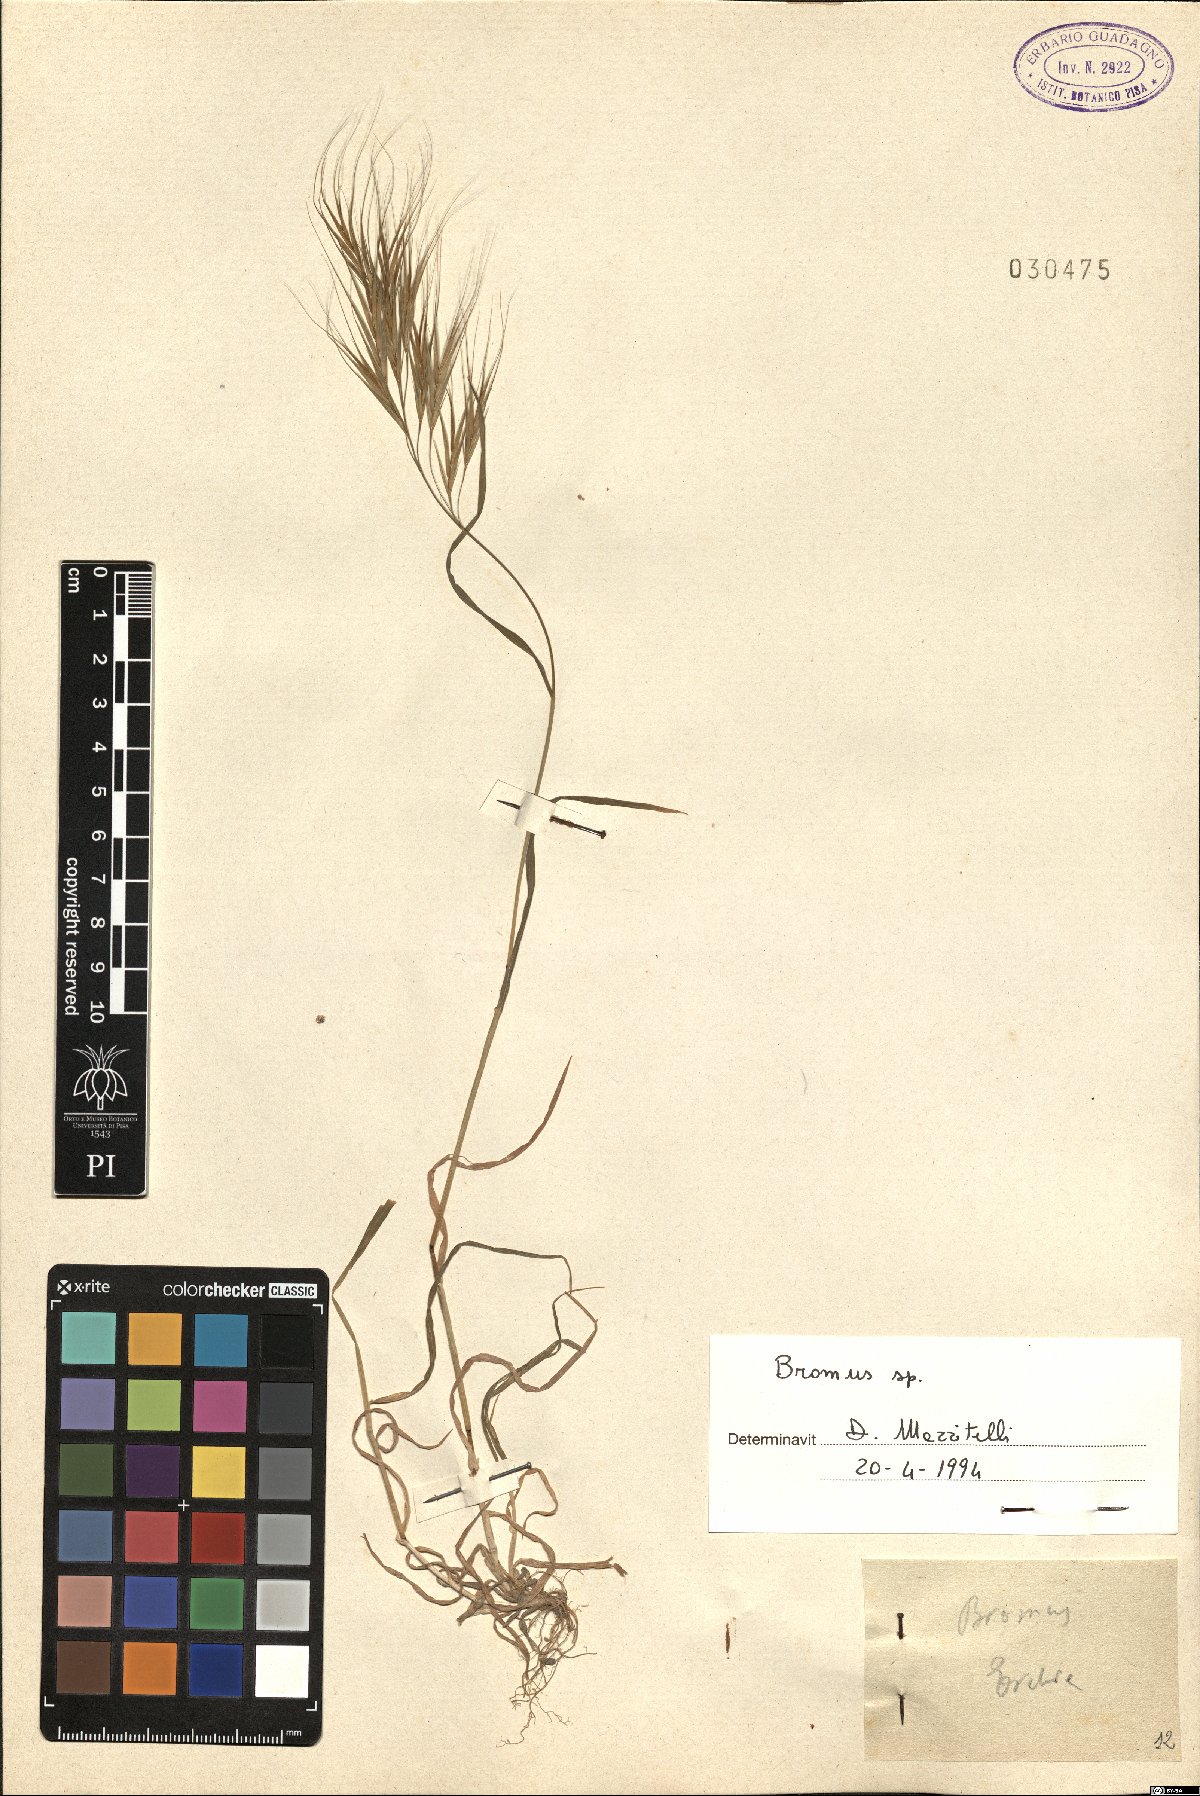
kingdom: Plantae
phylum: Tracheophyta
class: Liliopsida
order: Poales
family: Poaceae
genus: Bromus
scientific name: Bromus
